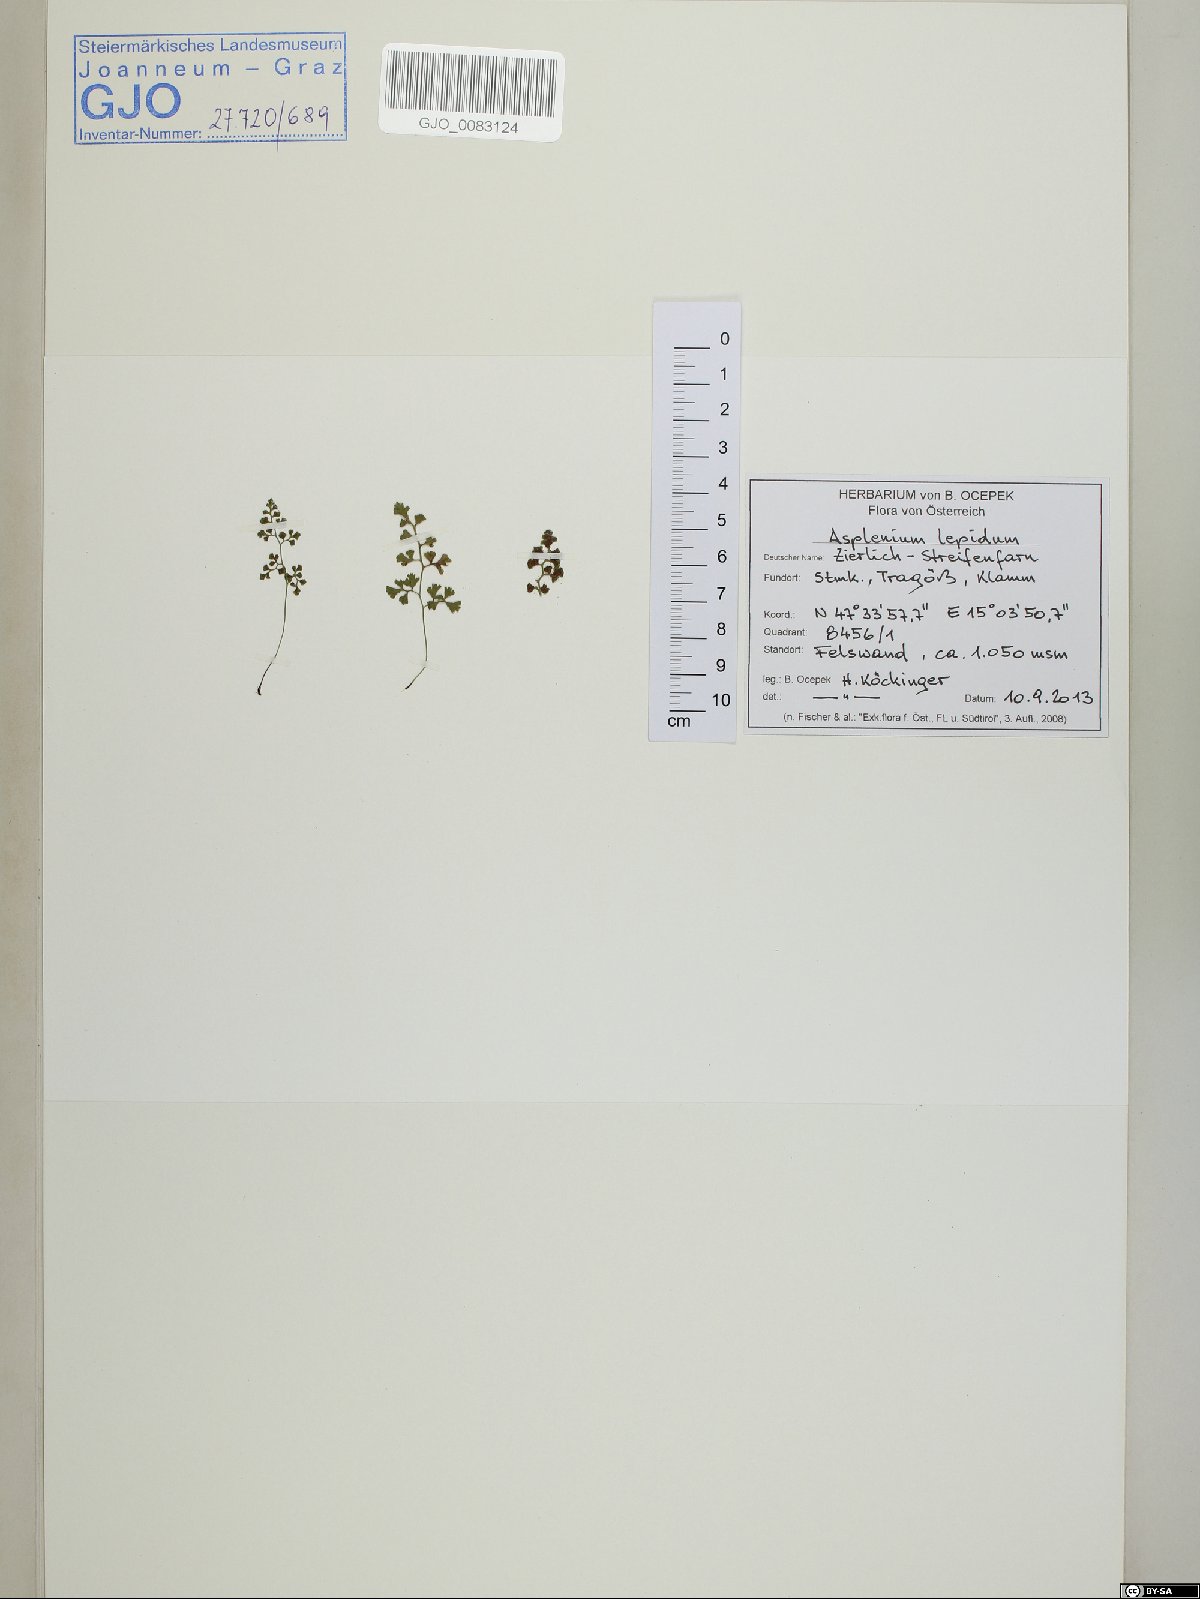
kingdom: Plantae
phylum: Tracheophyta
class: Polypodiopsida
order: Polypodiales
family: Aspleniaceae
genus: Asplenium
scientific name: Asplenium lepidum
